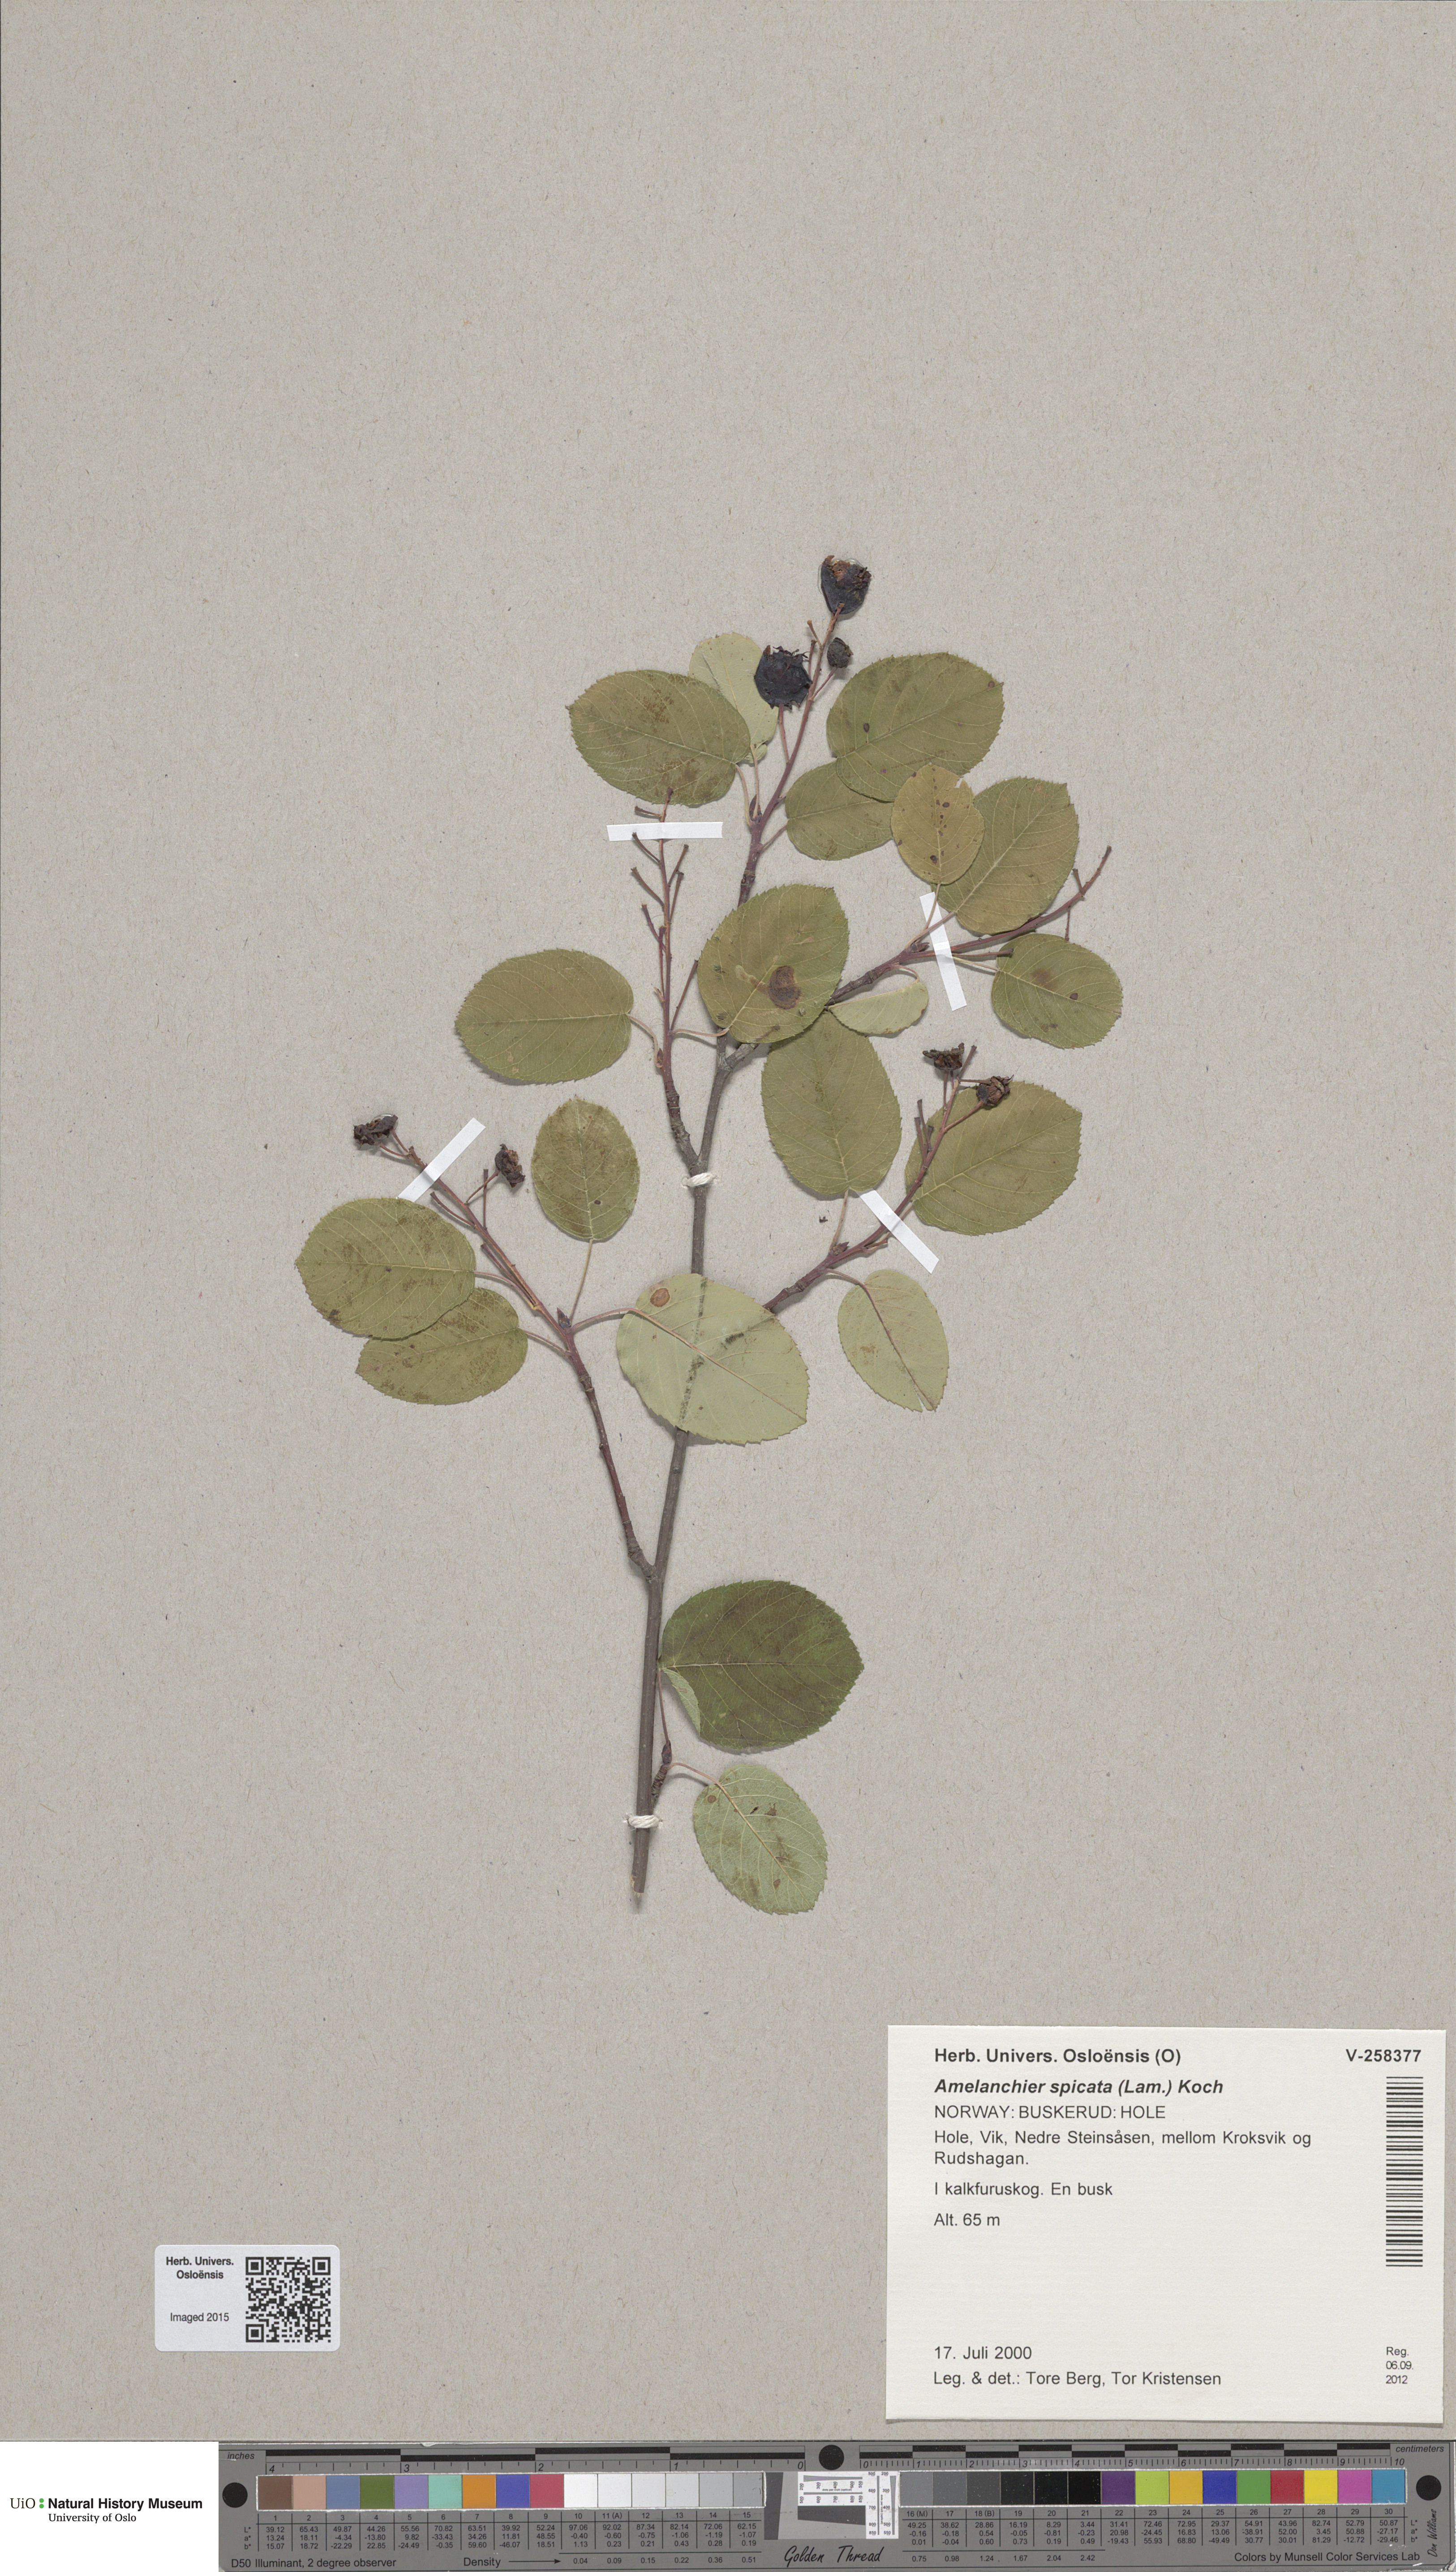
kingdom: Plantae
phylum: Tracheophyta
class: Magnoliopsida
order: Rosales
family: Rosaceae
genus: Amelanchier
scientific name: Amelanchier humilis
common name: Low juneberry
